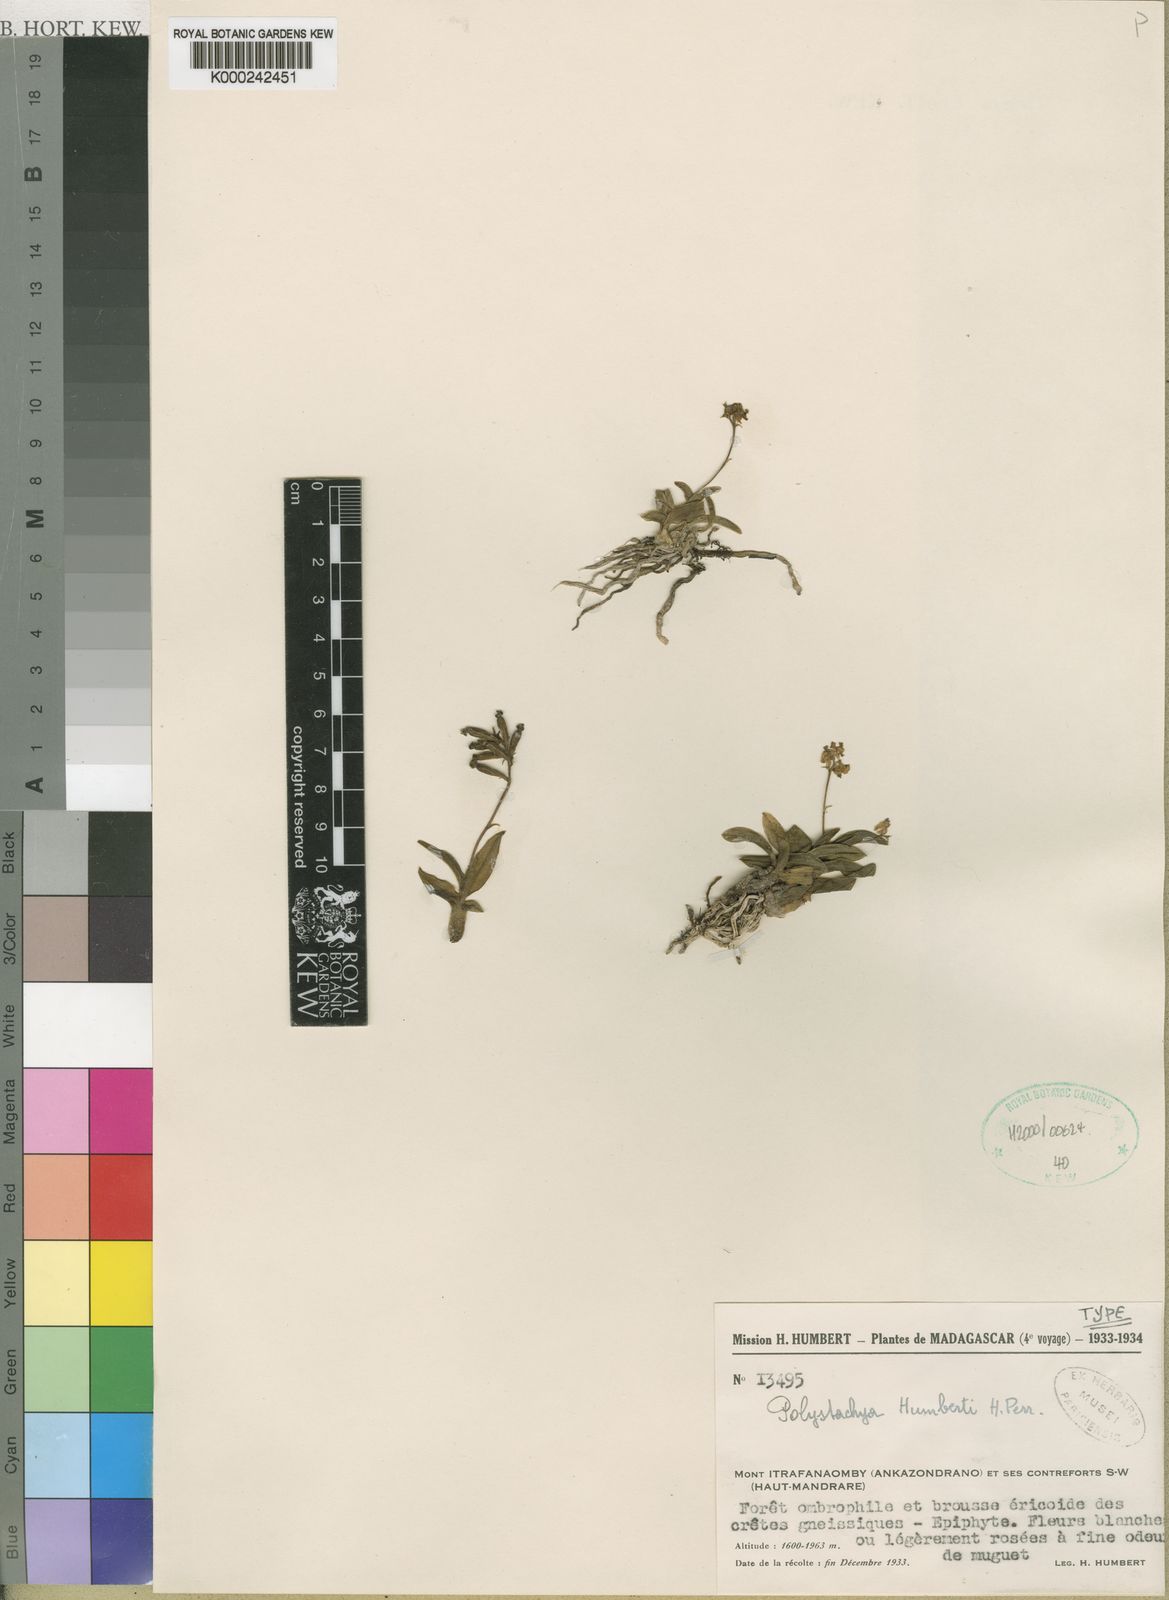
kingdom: Plantae
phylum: Tracheophyta
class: Liliopsida
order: Asparagales
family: Orchidaceae
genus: Polystachya
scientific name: Polystachya humbertii
